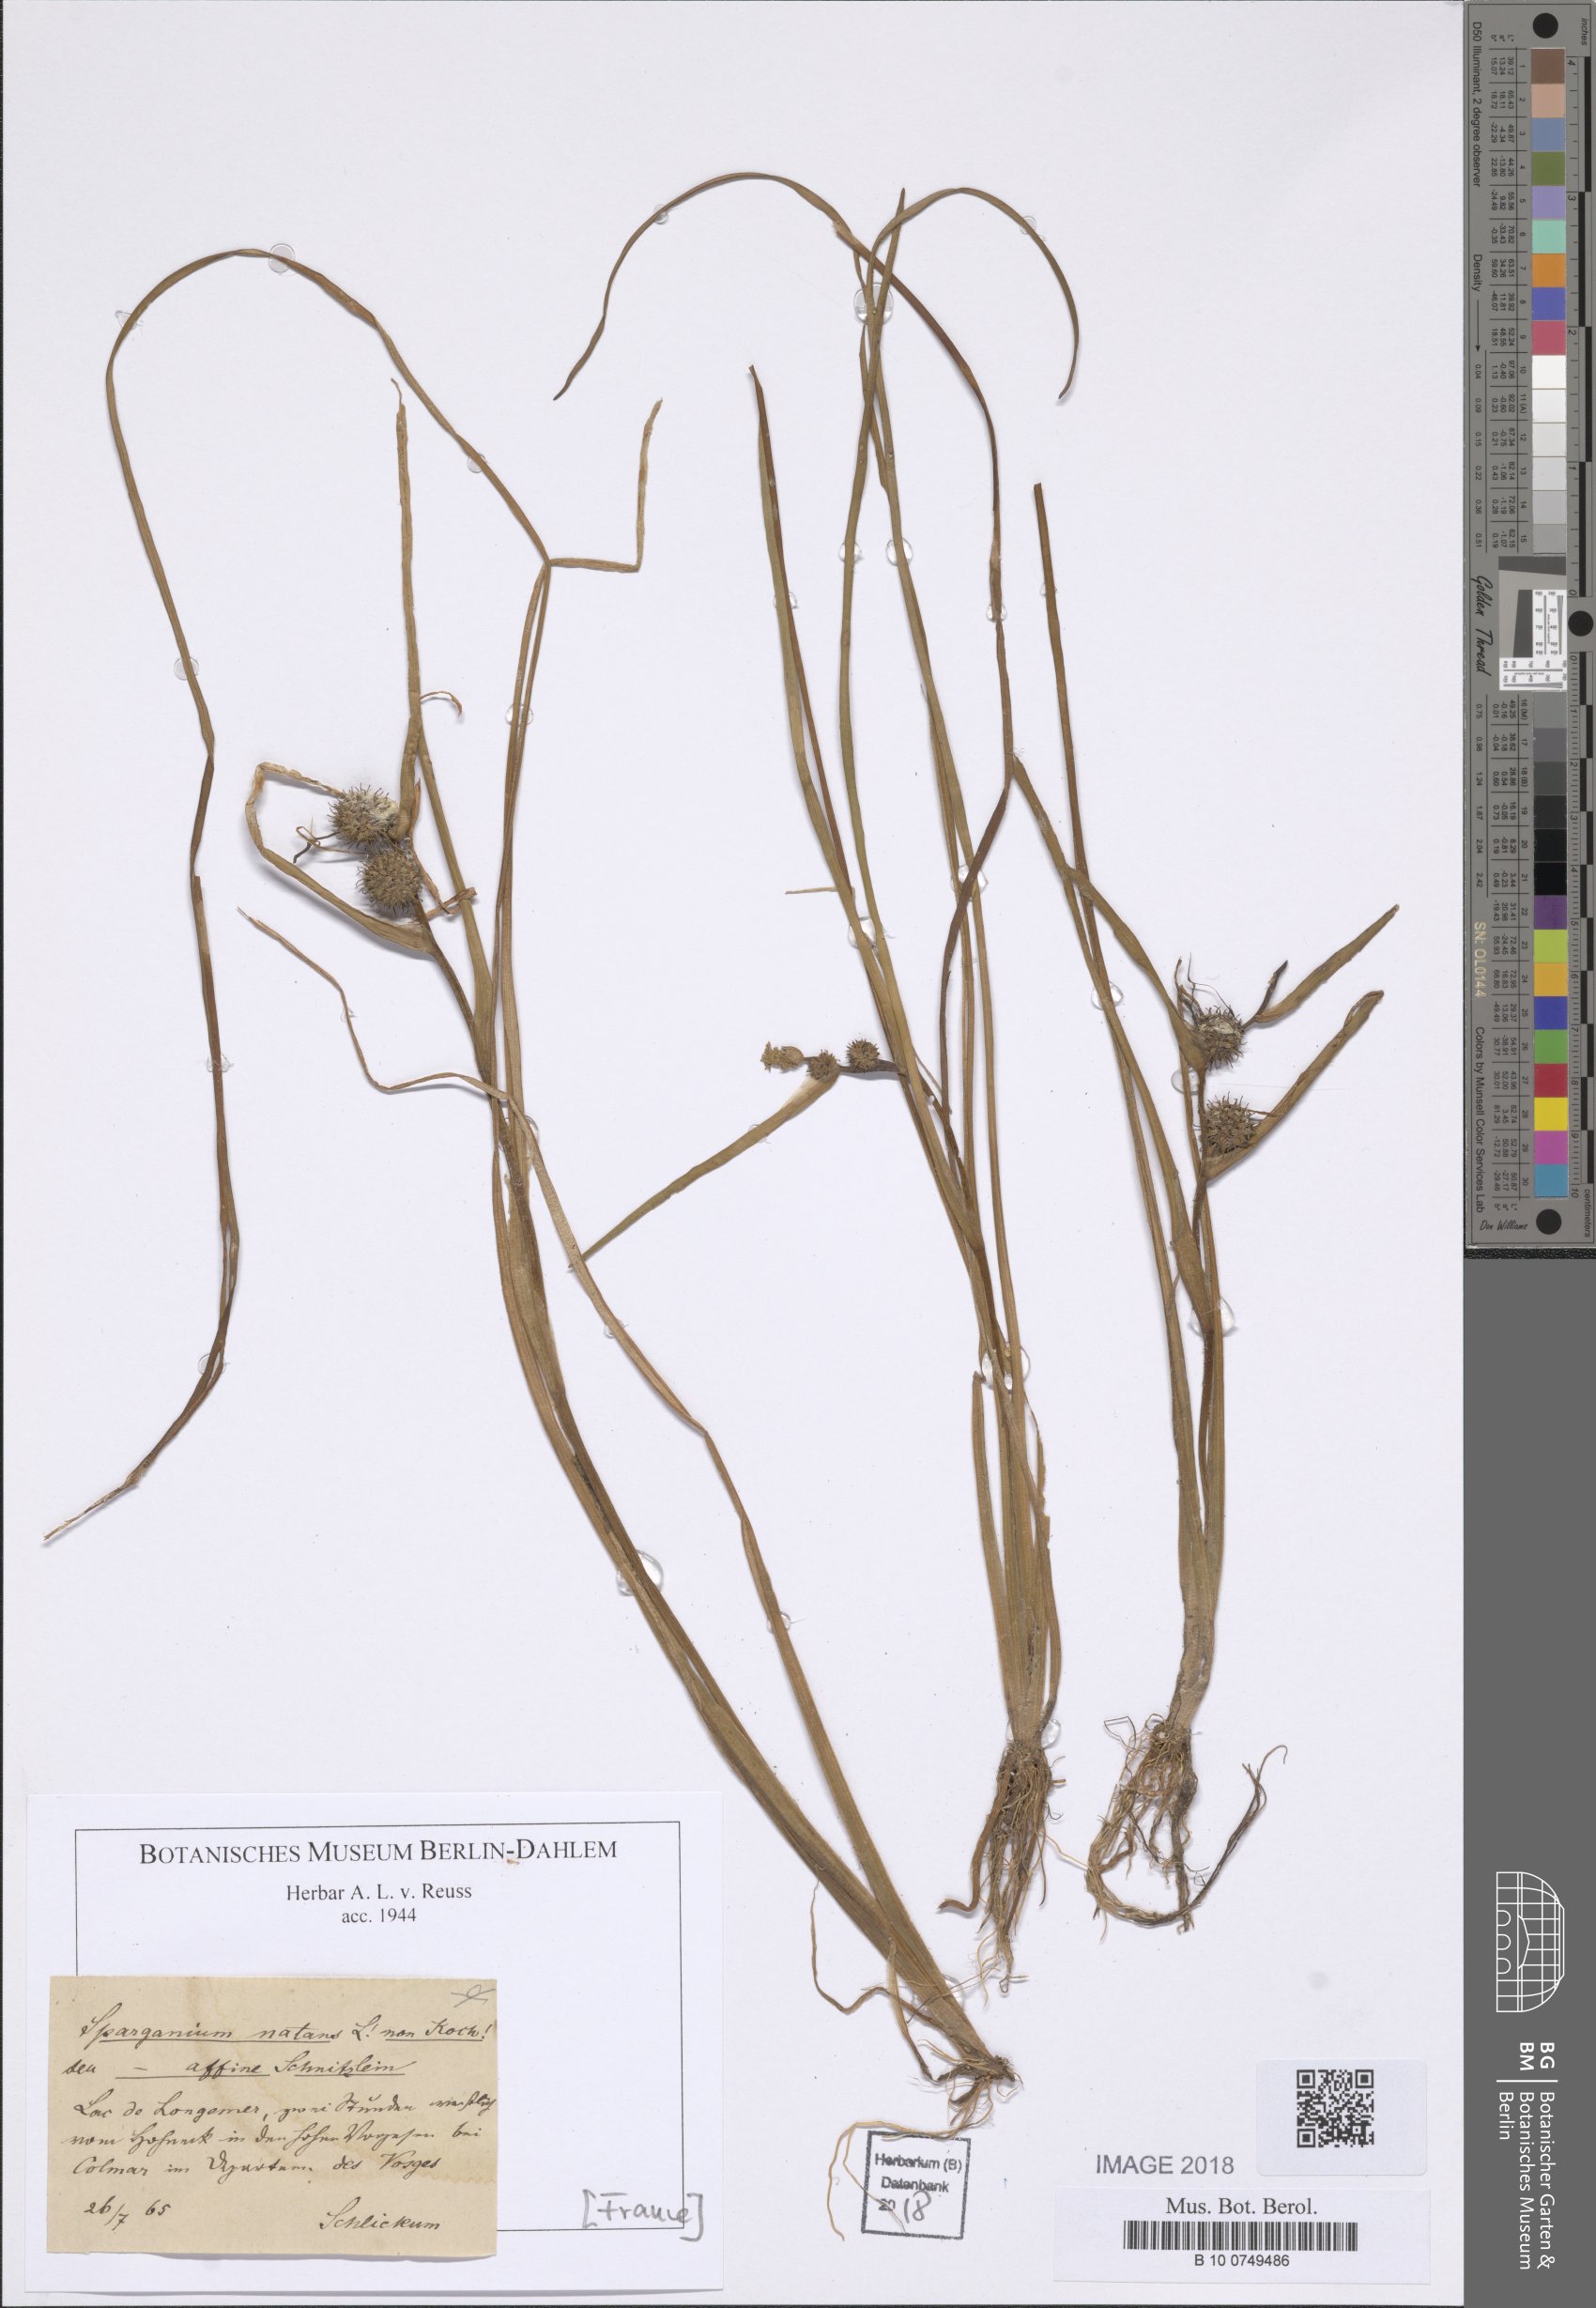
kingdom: Plantae
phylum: Tracheophyta
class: Liliopsida
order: Poales
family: Typhaceae
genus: Sparganium
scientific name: Sparganium natans
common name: Least bur-reed
